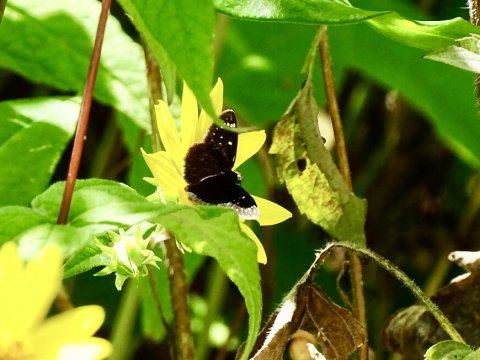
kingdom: Animalia
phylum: Arthropoda
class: Insecta
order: Lepidoptera
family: Hesperiidae
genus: Pholisora
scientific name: Pholisora catullus
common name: Common Sootywing
